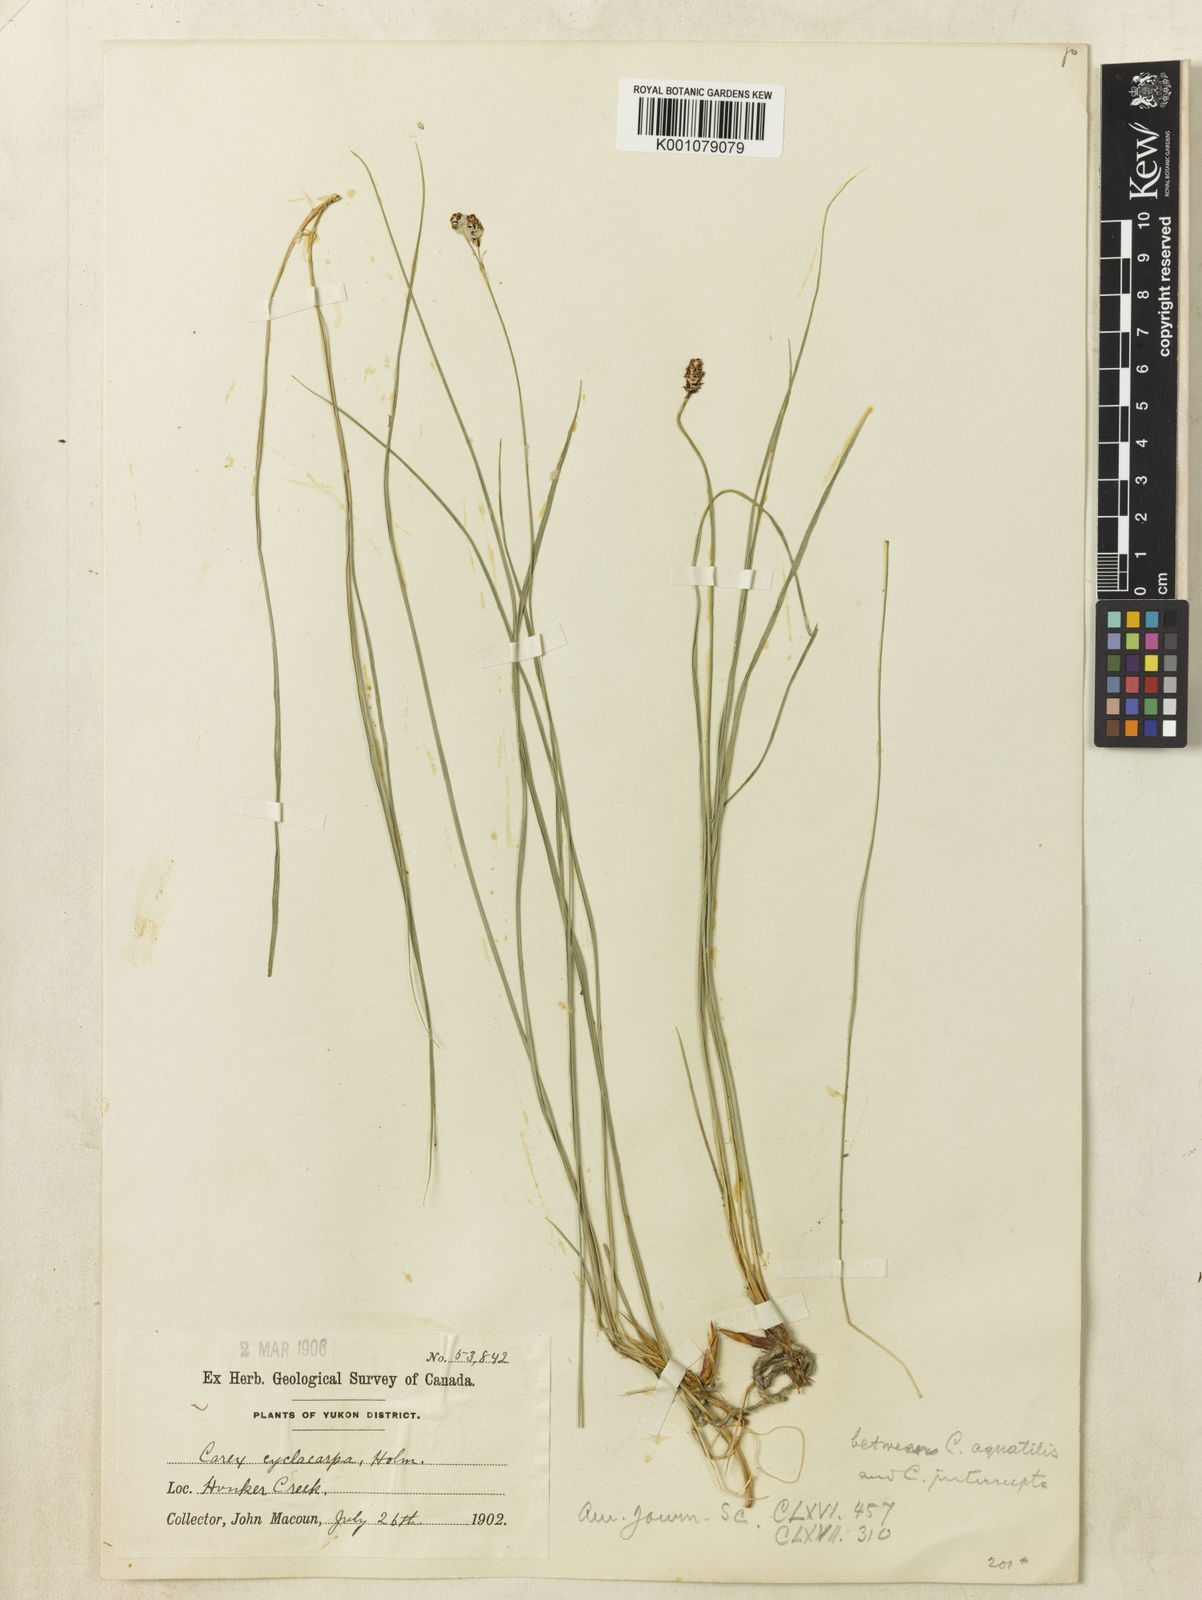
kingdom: Plantae
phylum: Tracheophyta
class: Liliopsida
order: Poales
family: Cyperaceae
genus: Carex
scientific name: Carex bigelowii
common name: Stiff sedge
